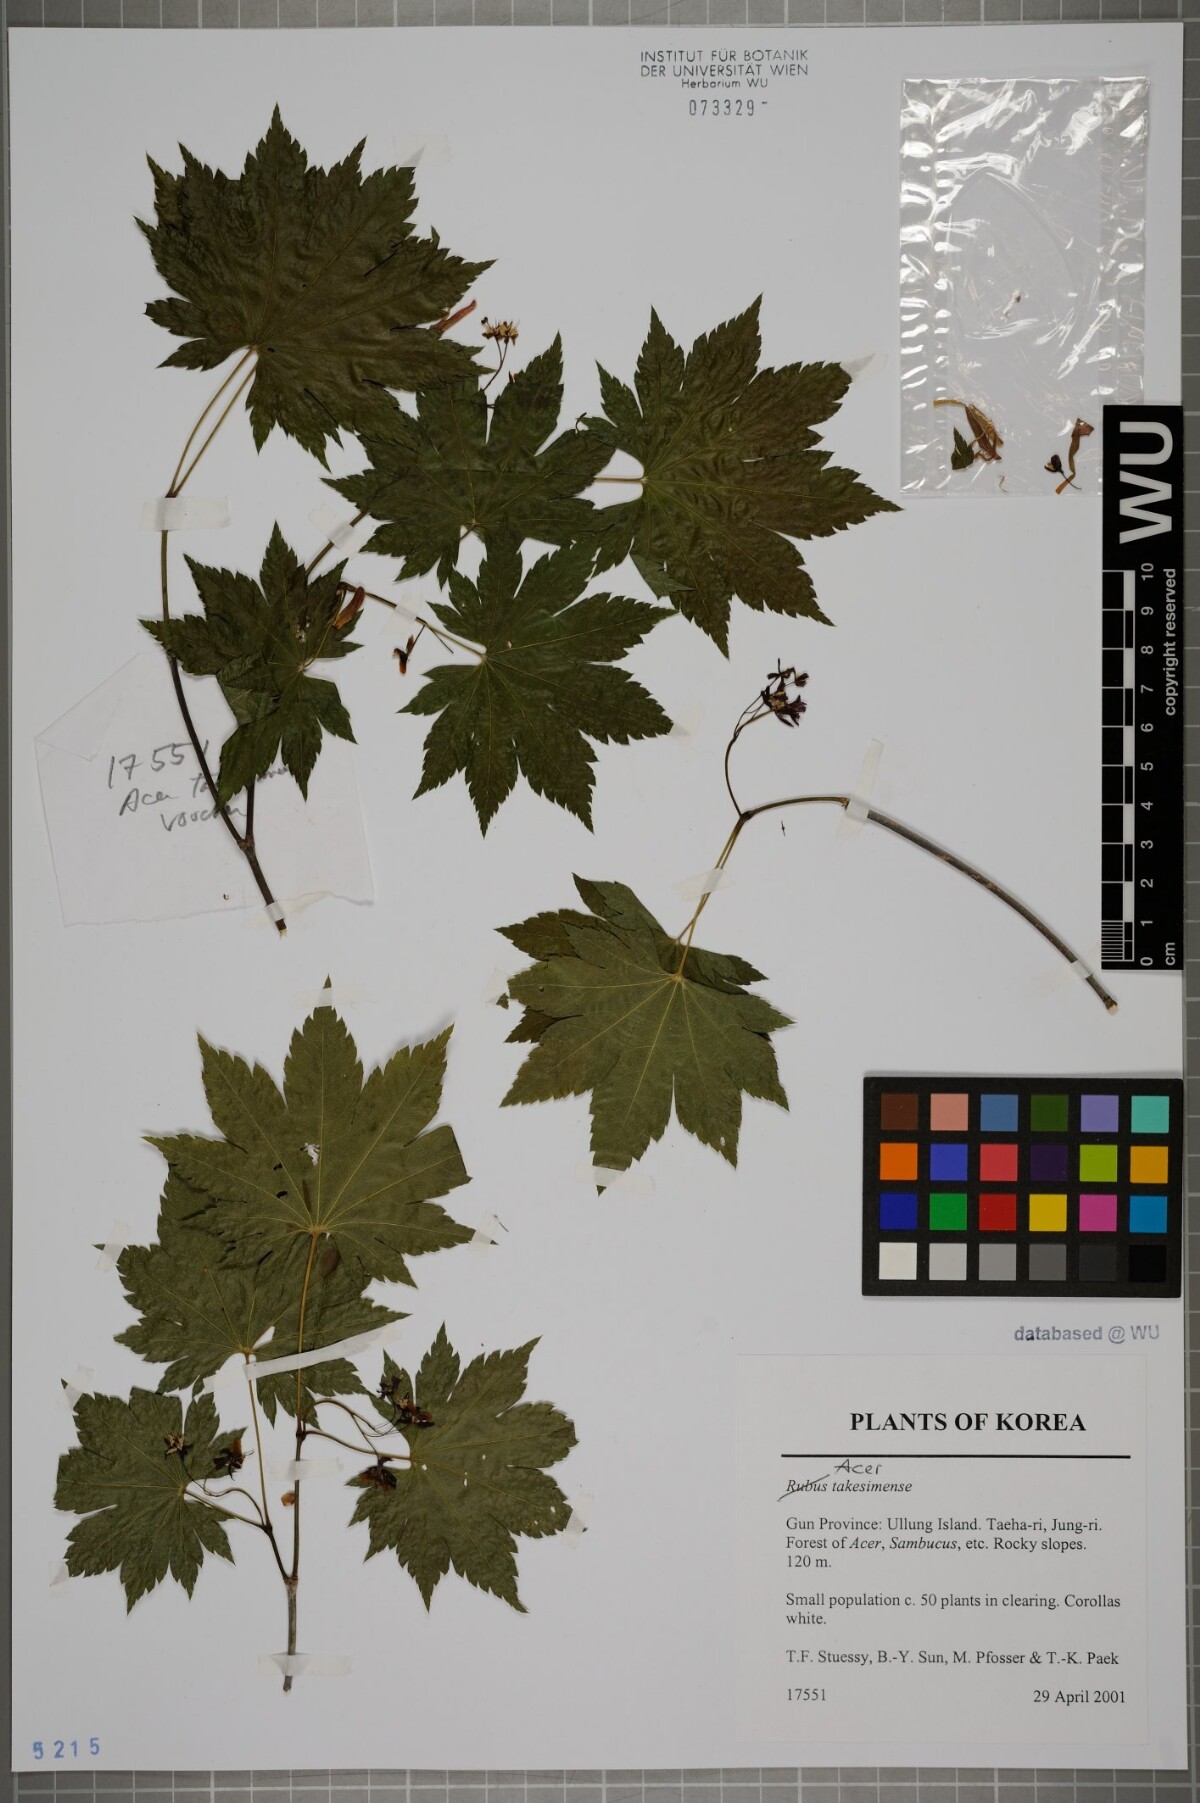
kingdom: Plantae
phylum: Tracheophyta
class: Magnoliopsida
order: Sapindales
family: Sapindaceae
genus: Acer
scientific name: Acer pseudosieboldianum
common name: Korean maple
